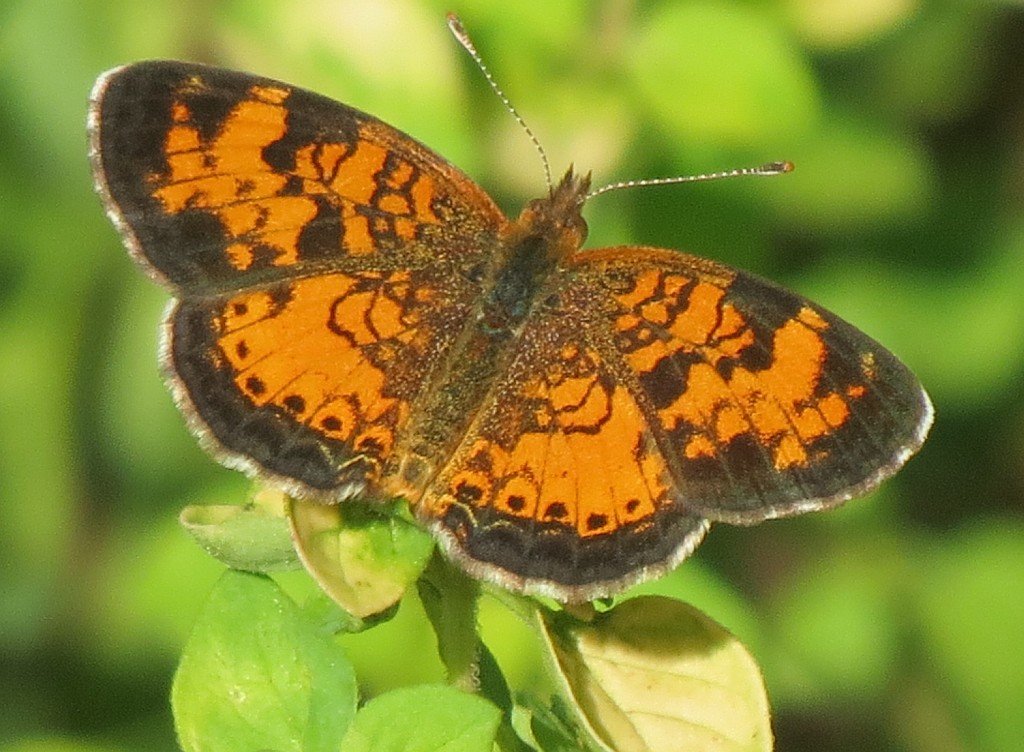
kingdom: Animalia
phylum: Arthropoda
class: Insecta
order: Lepidoptera
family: Nymphalidae
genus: Phyciodes
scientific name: Phyciodes tharos
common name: Northern Crescent
